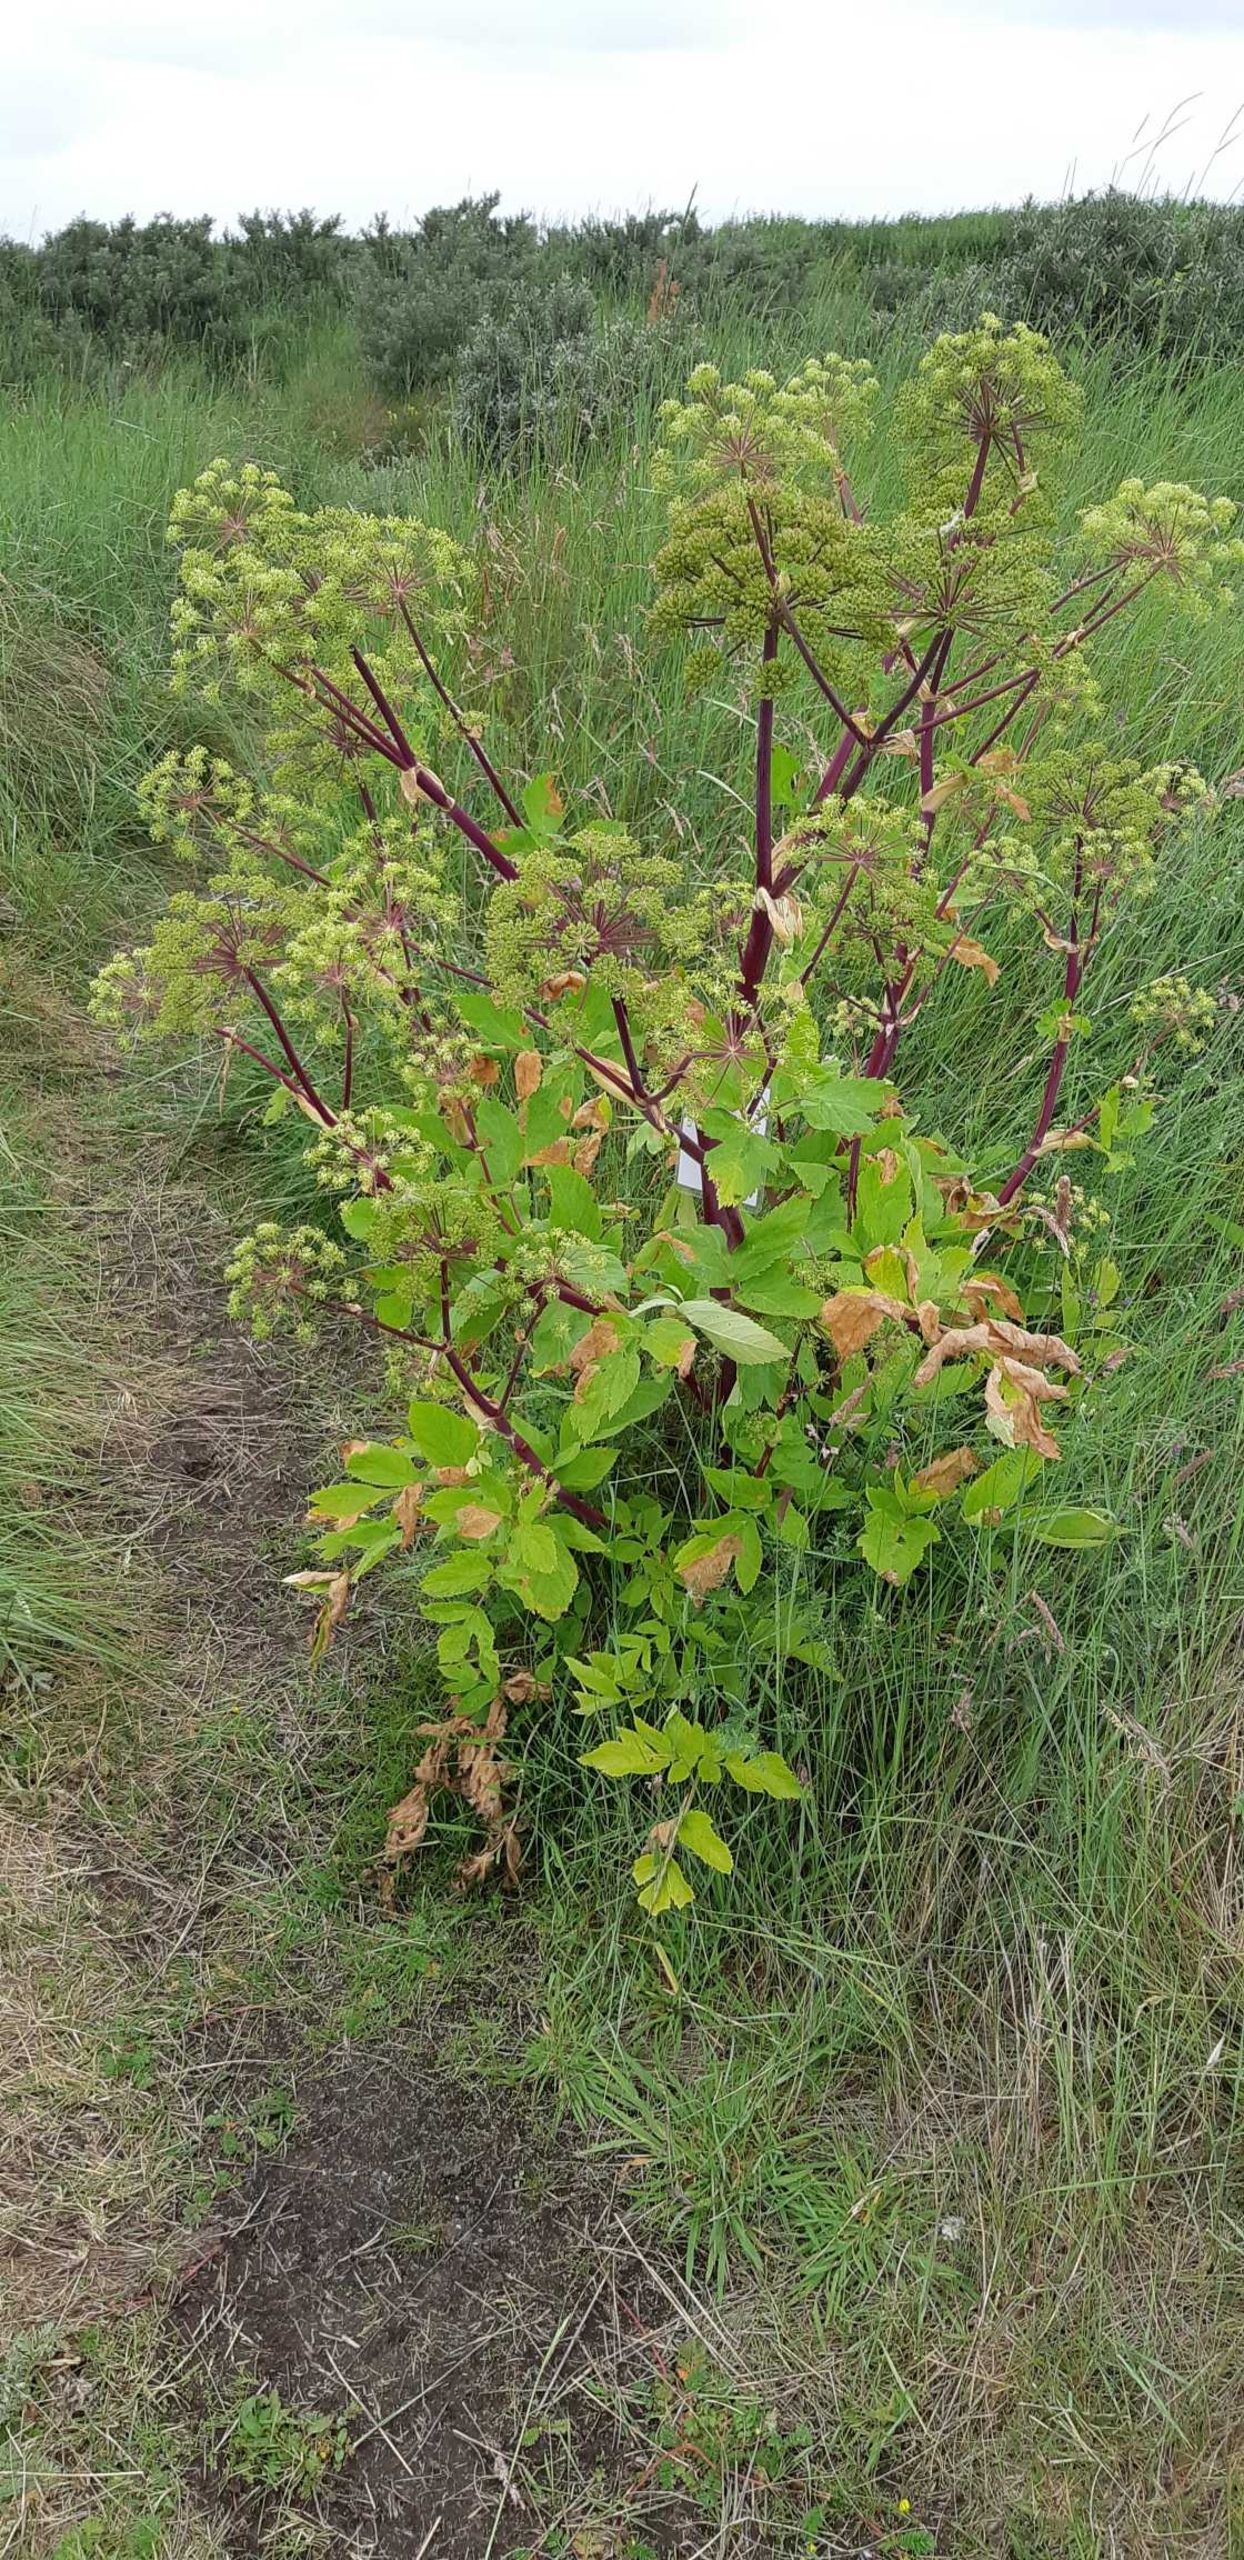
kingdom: Plantae
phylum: Tracheophyta
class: Magnoliopsida
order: Apiales
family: Apiaceae
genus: Angelica
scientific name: Angelica archangelica
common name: Kvan
